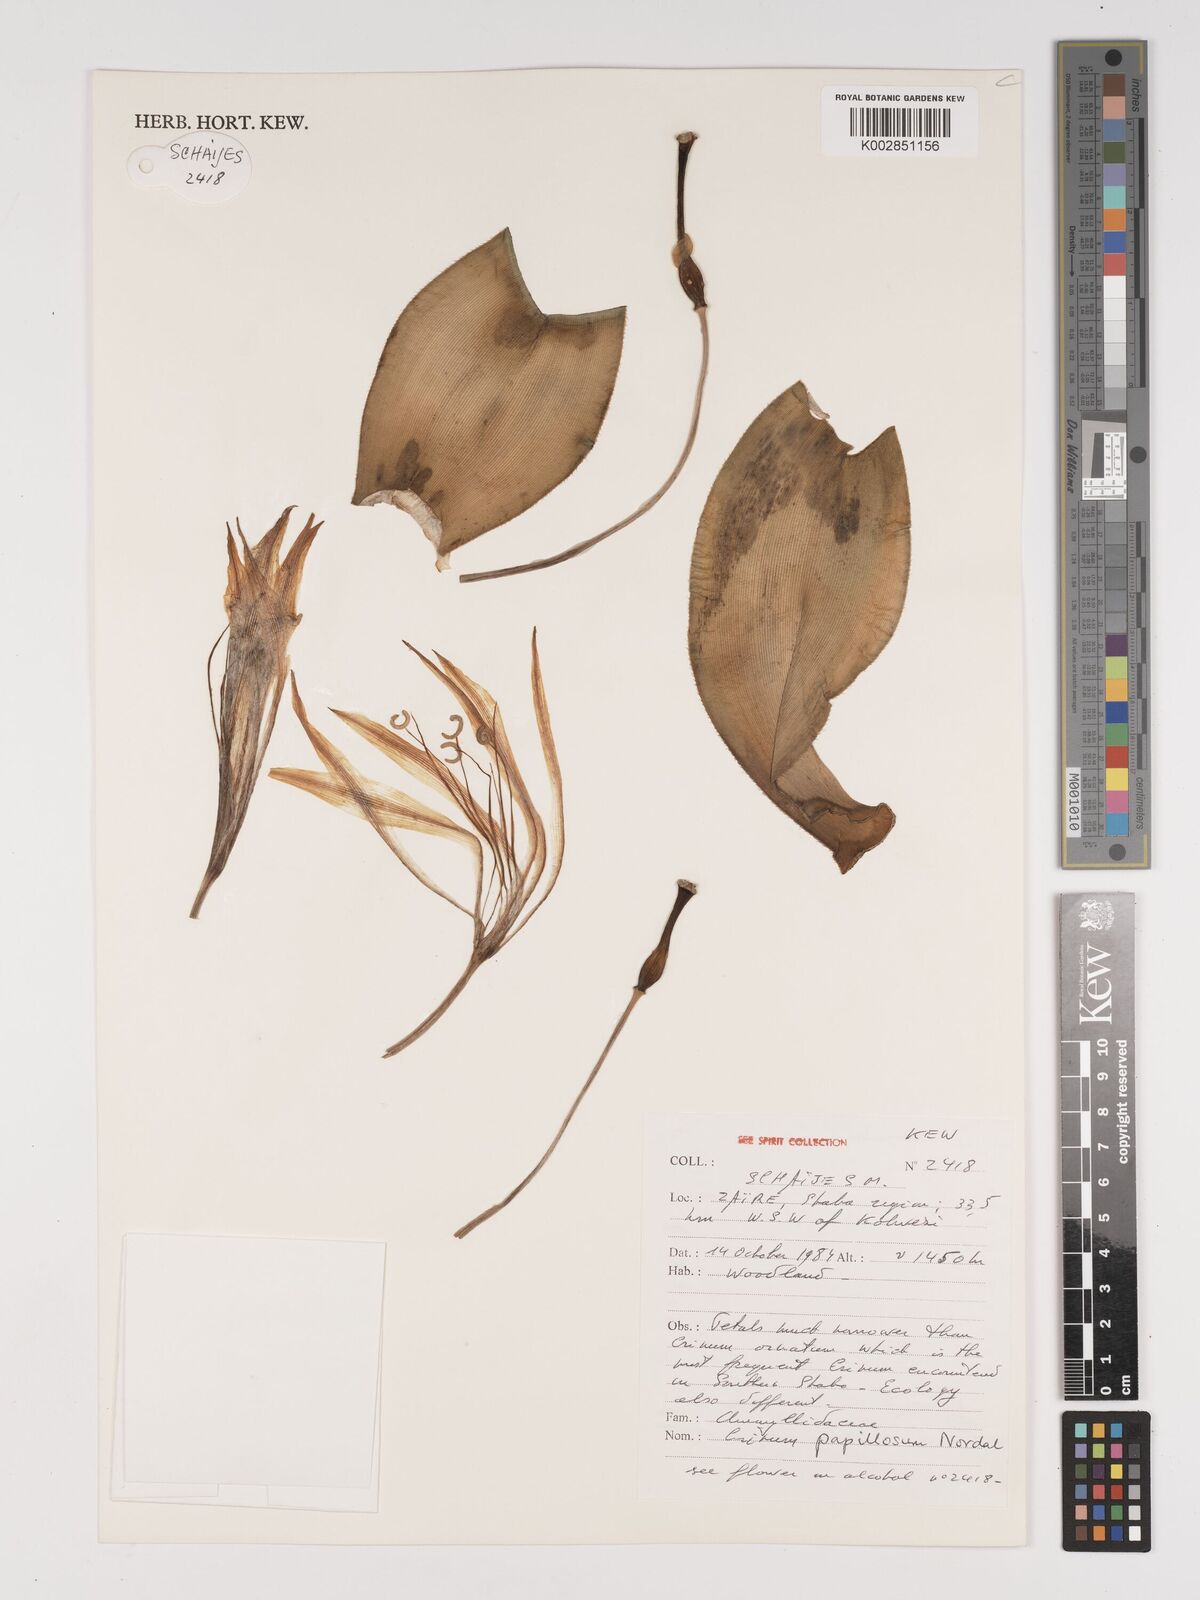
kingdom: Plantae
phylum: Tracheophyta
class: Liliopsida
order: Asparagales
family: Amaryllidaceae
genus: Crinum
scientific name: Crinum papillosum
